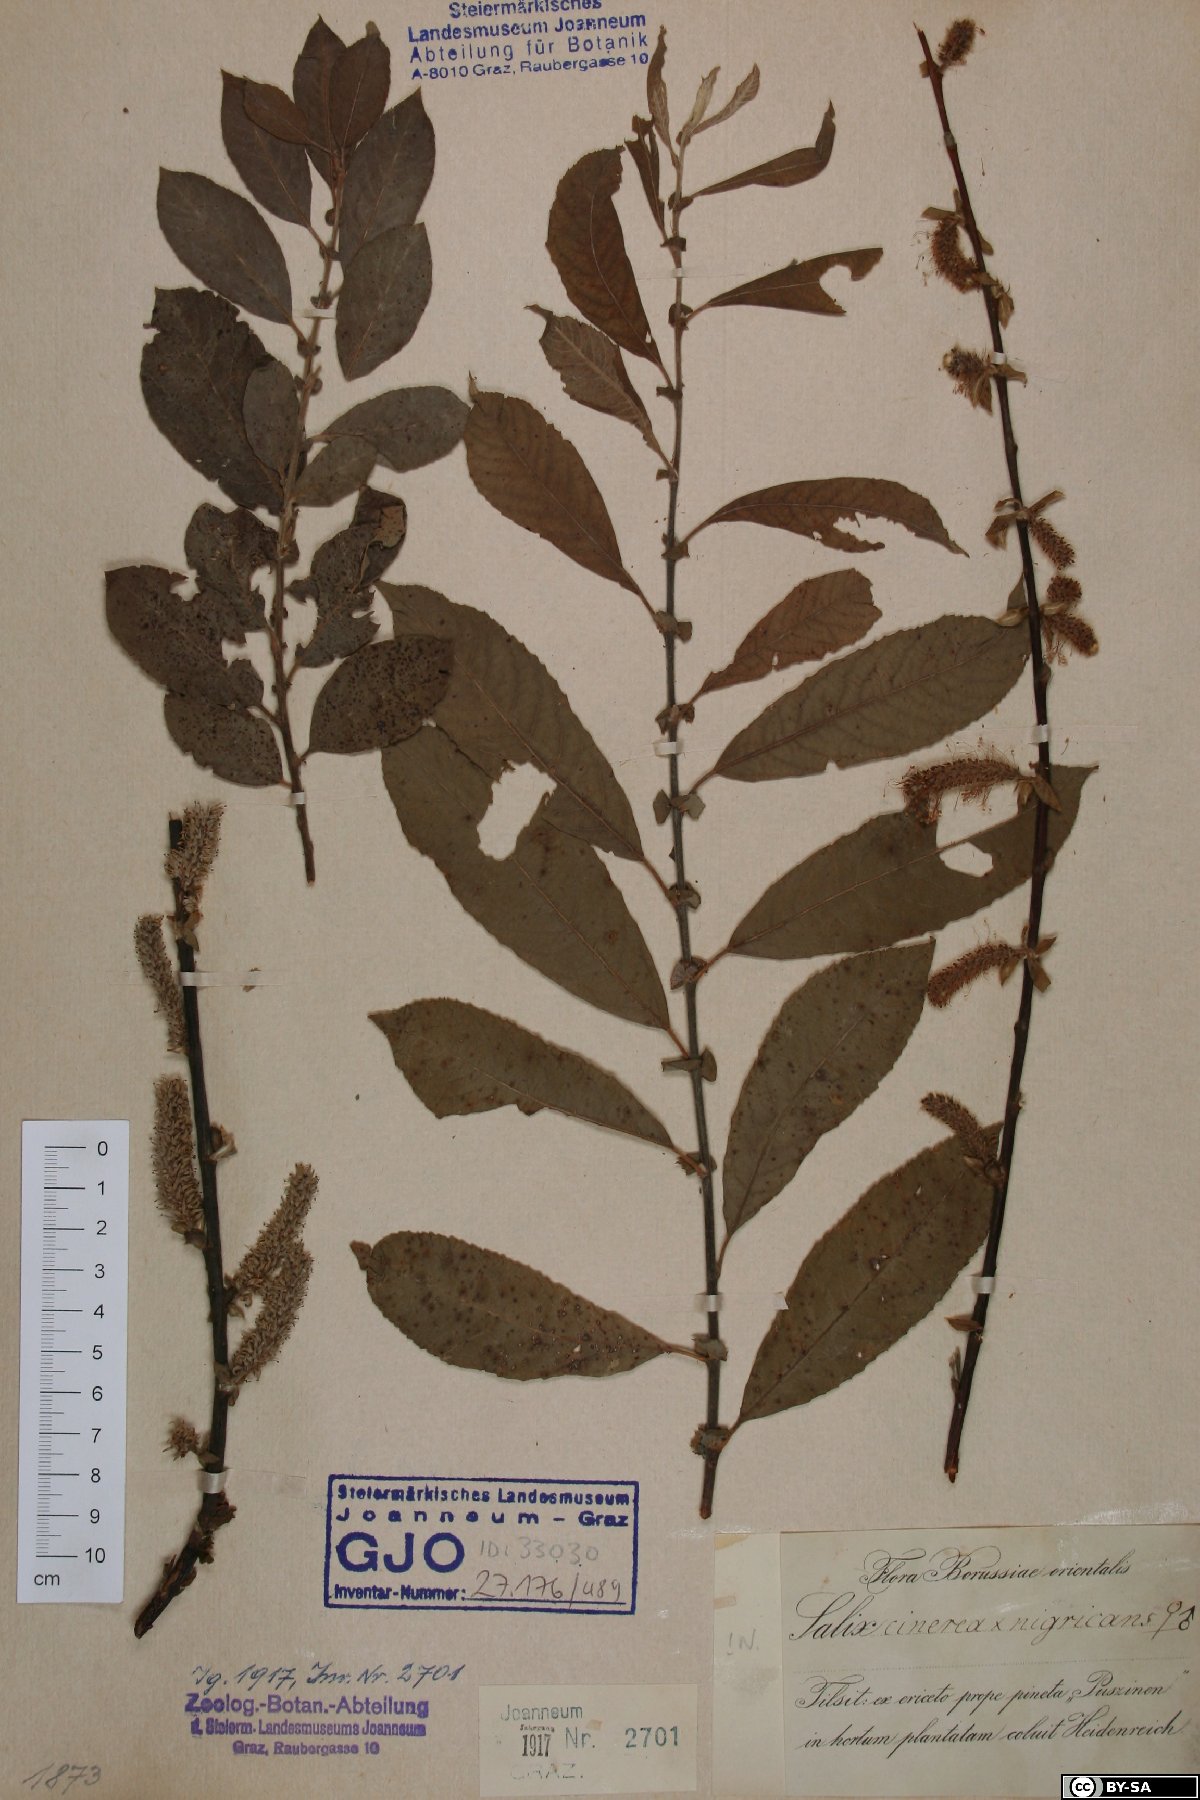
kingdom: Plantae
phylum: Tracheophyta
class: Magnoliopsida
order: Malpighiales
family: Salicaceae
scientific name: Salicaceae
